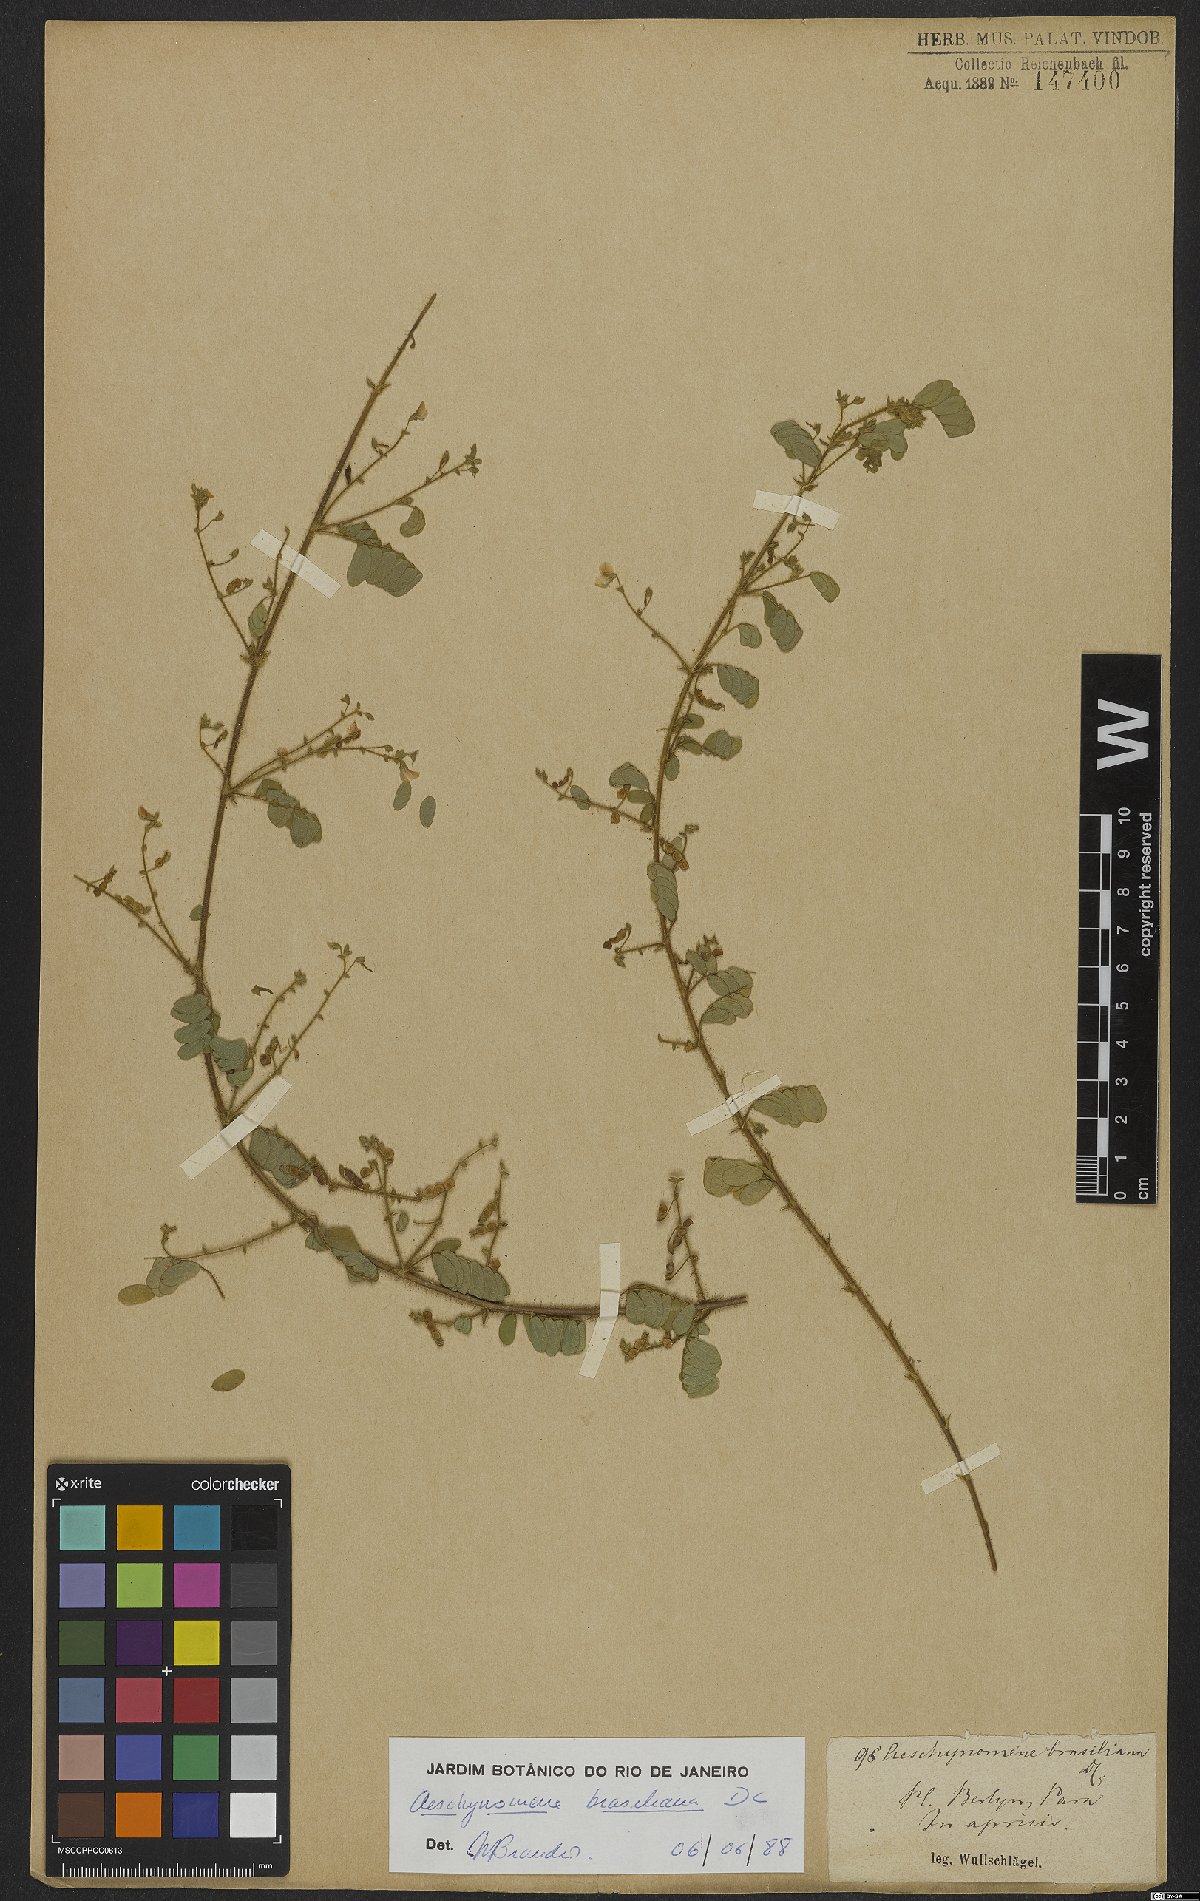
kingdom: Plantae
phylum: Tracheophyta
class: Magnoliopsida
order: Fabales
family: Fabaceae
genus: Ctenodon
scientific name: Ctenodon brasilianus
